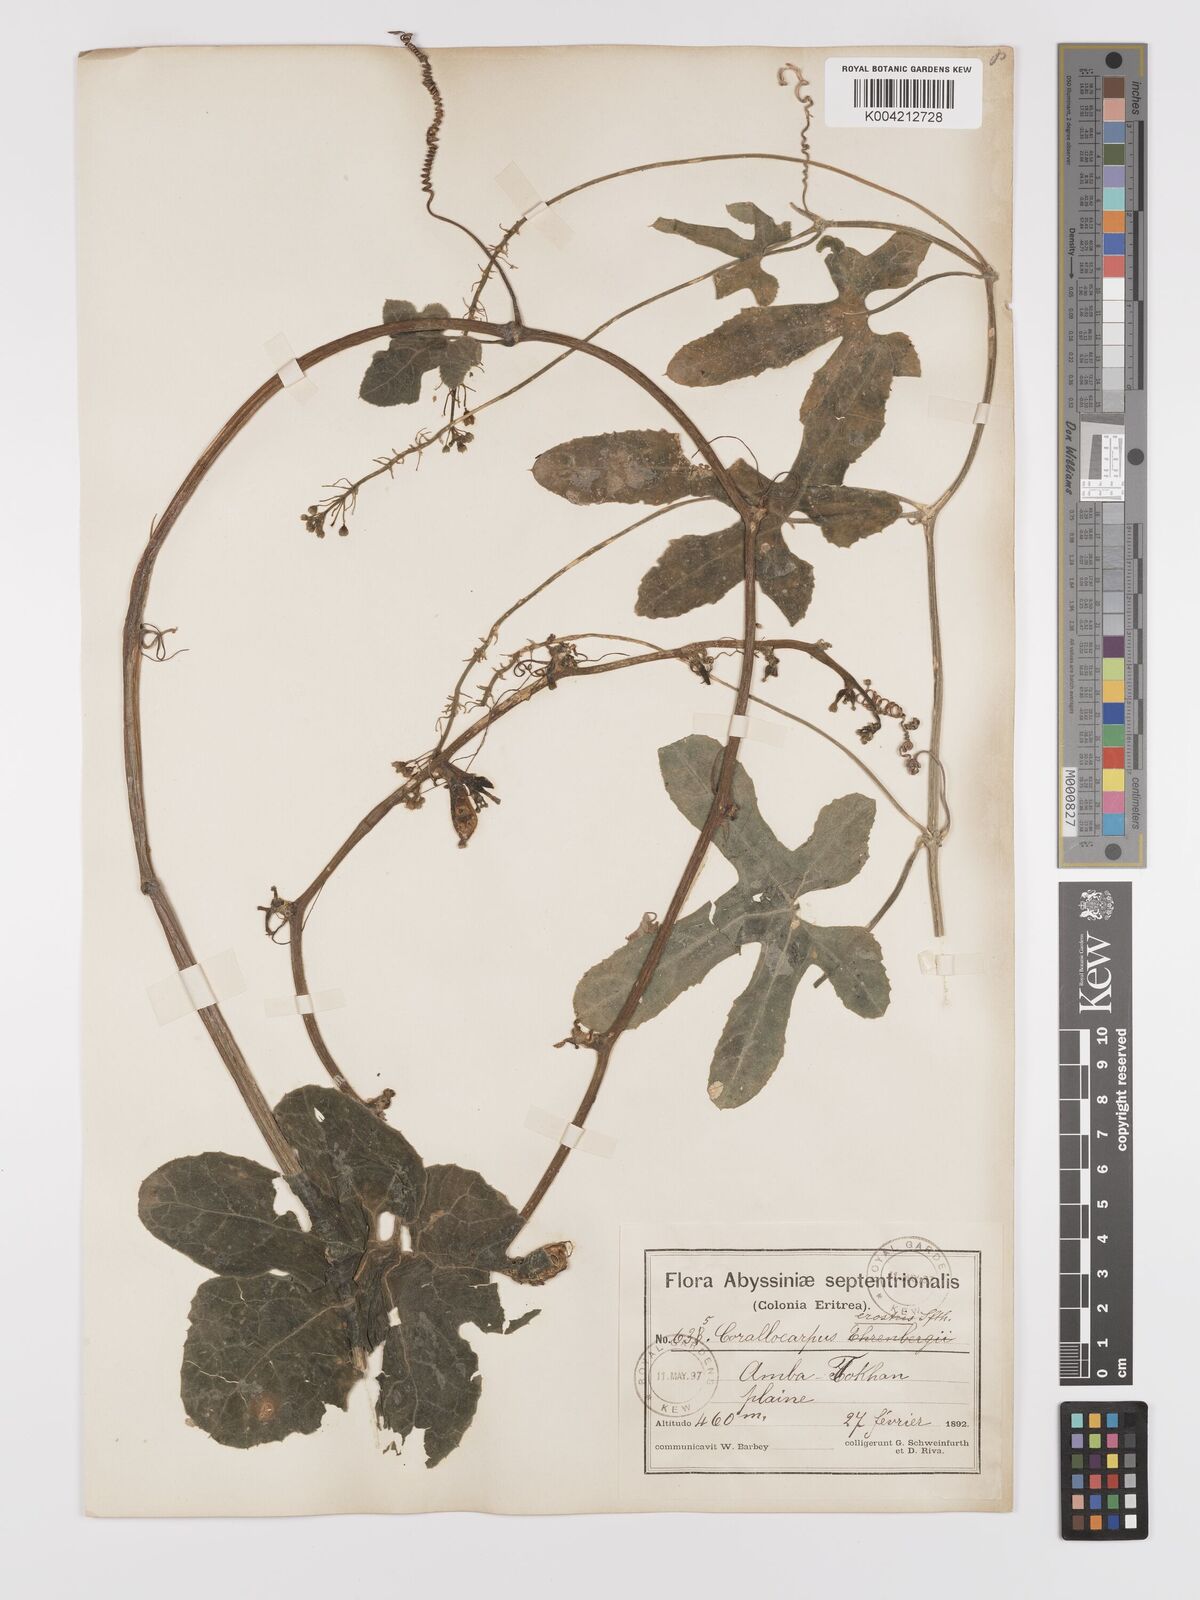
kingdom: Plantae
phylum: Tracheophyta
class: Magnoliopsida
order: Cucurbitales
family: Cucurbitaceae
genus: Corallocarpus
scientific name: Corallocarpus schimperi
